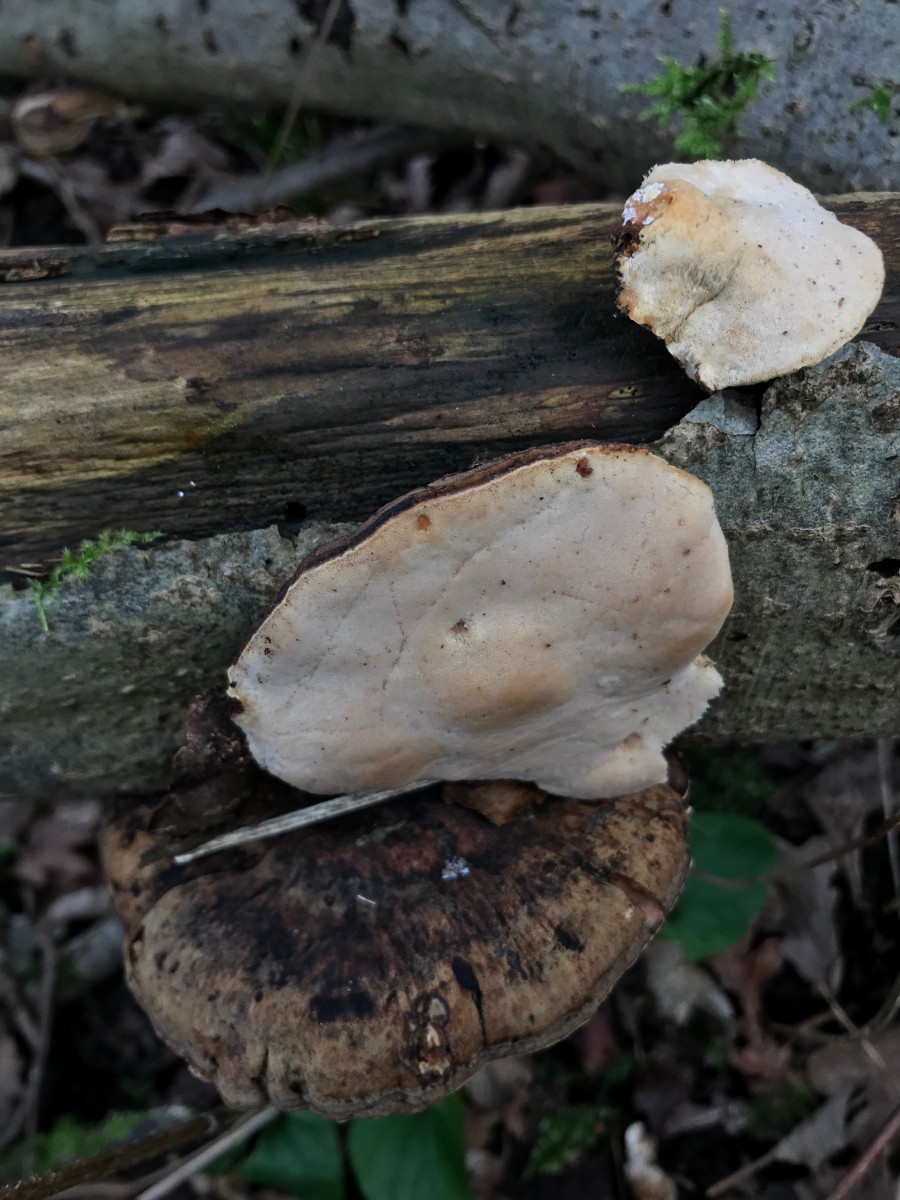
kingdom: Fungi
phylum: Basidiomycota
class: Agaricomycetes
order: Polyporales
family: Ischnodermataceae
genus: Ischnoderma
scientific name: Ischnoderma resinosum
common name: løv-tjæreporesvamp
